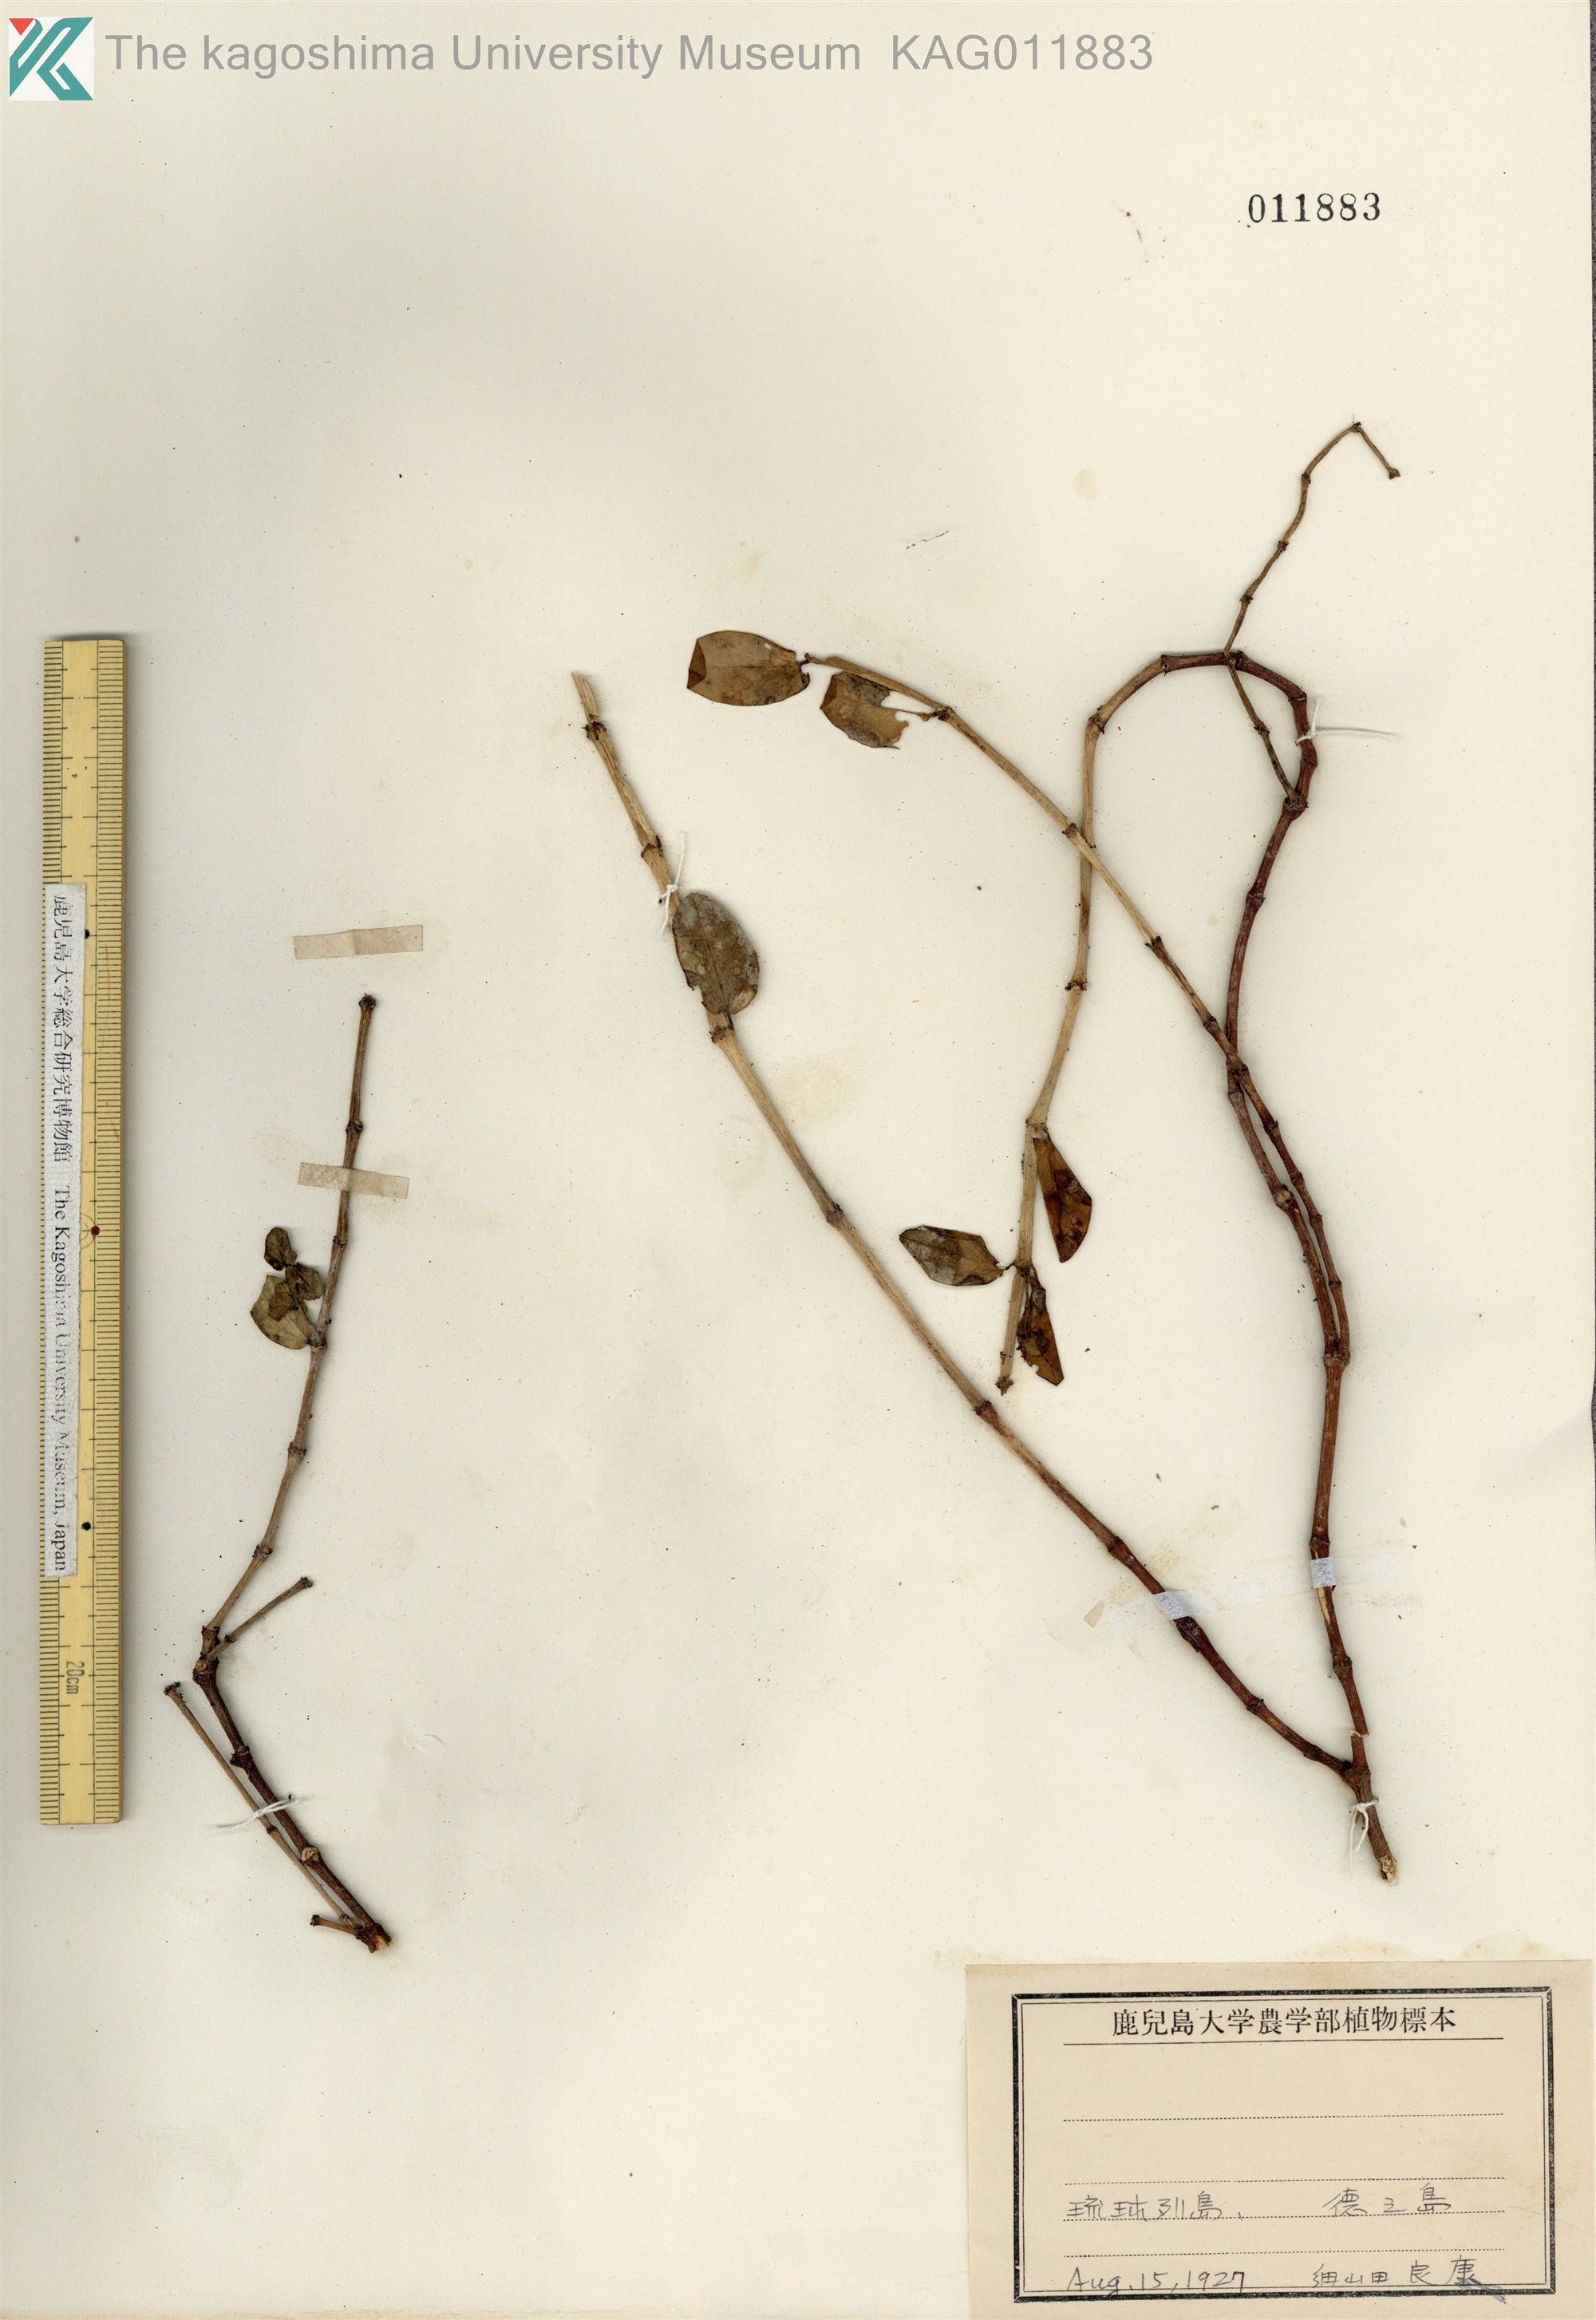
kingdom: Plantae
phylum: Tracheophyta
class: Magnoliopsida
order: Malpighiales
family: Euphorbiaceae
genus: Euphorbia
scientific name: Euphorbia chamissonis
